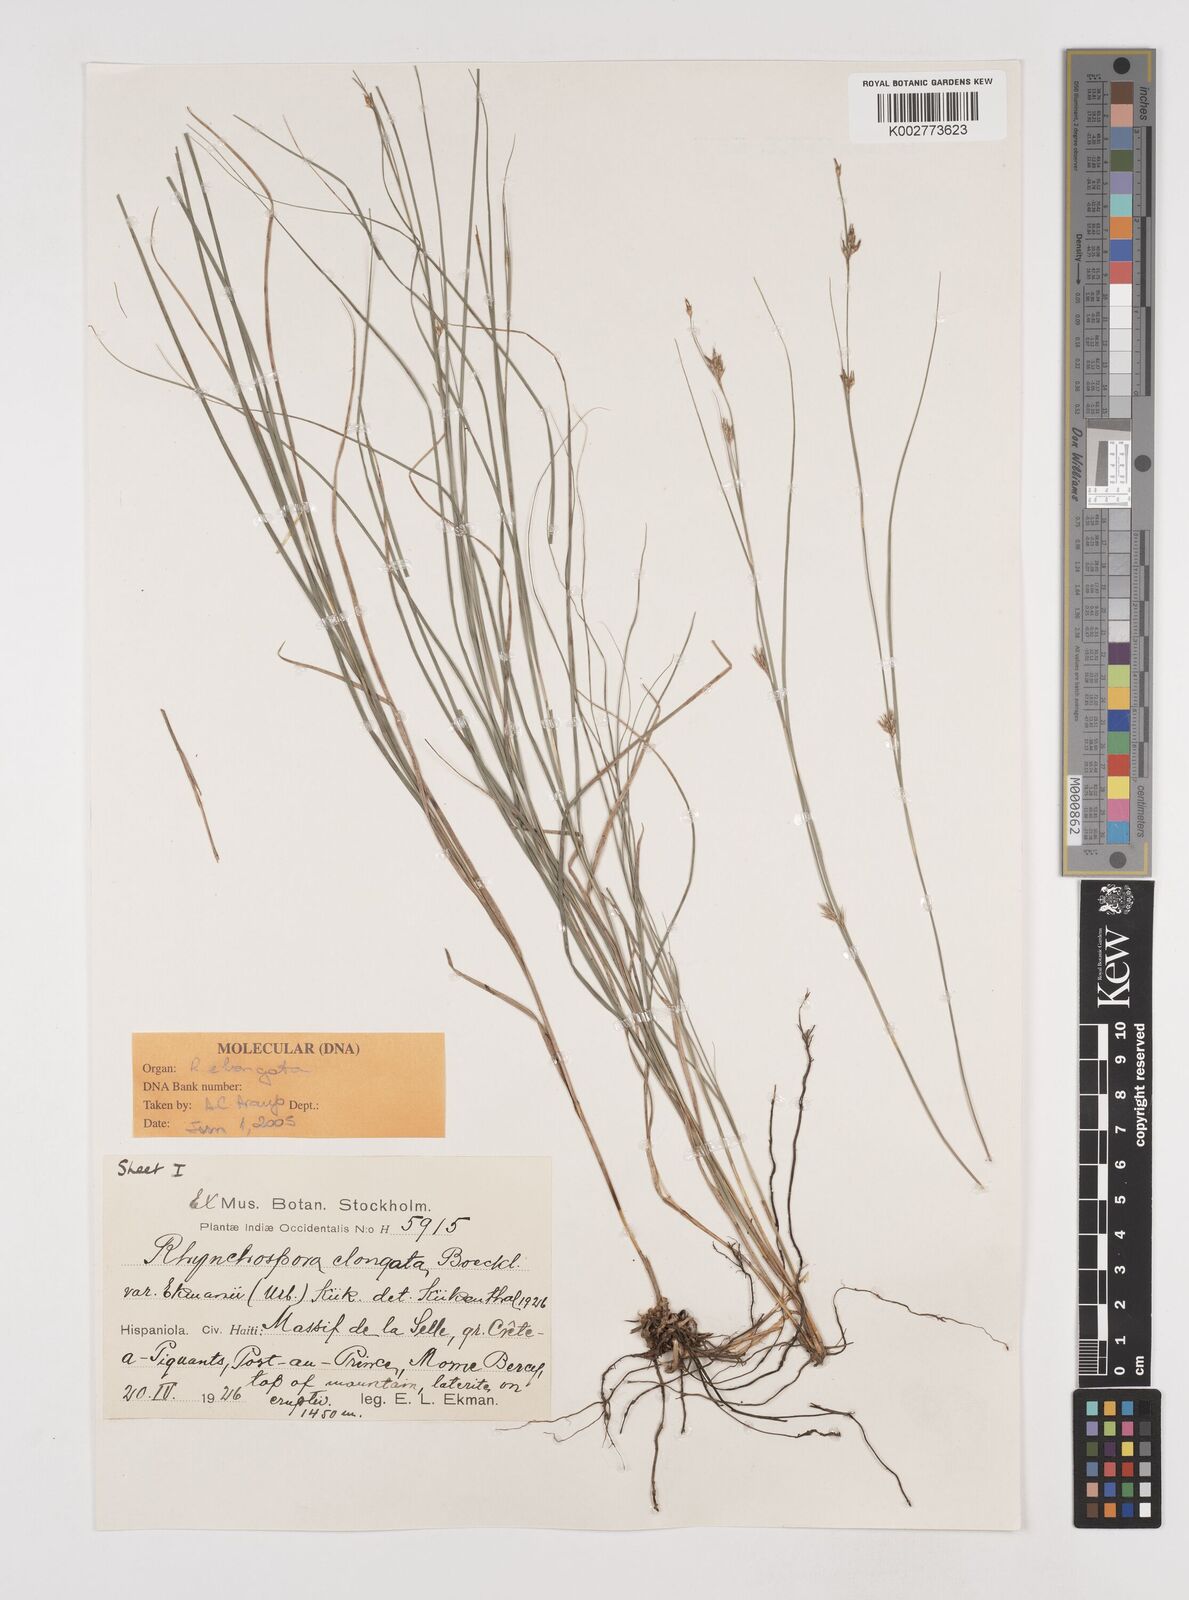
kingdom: Plantae
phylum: Tracheophyta
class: Liliopsida
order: Poales
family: Cyperaceae
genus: Rhynchospora
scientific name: Rhynchospora biflora
